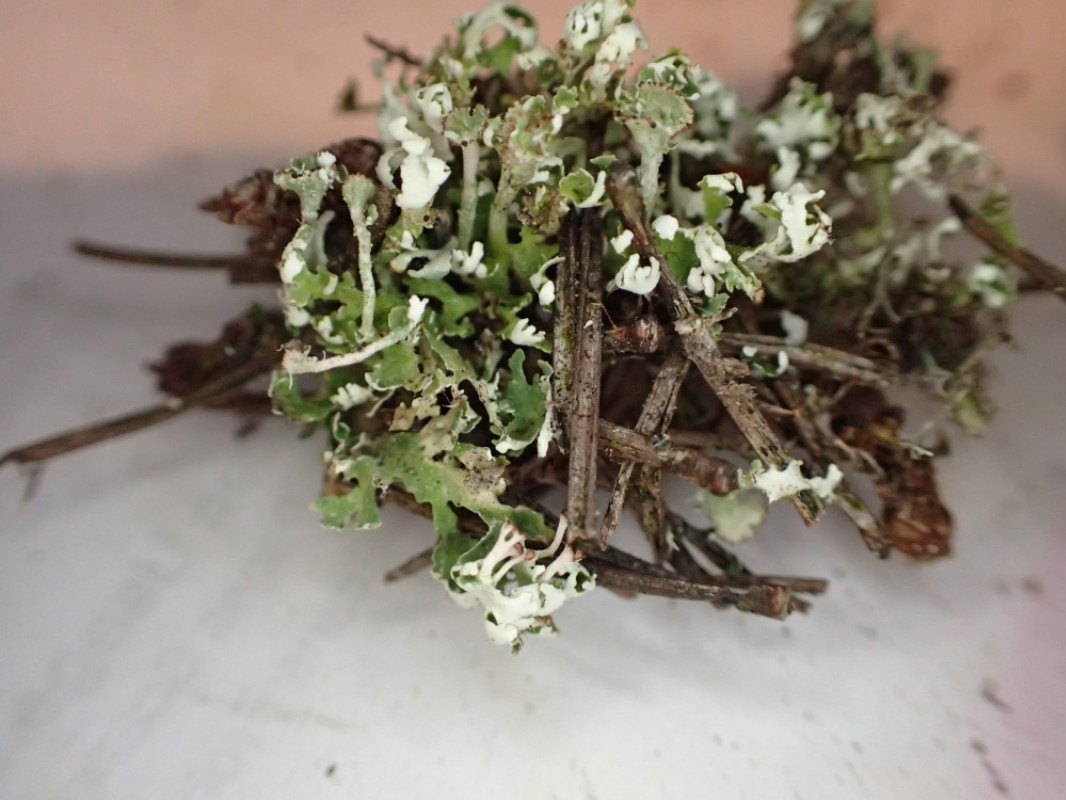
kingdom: Fungi
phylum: Ascomycota
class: Lecanoromycetes
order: Lecanorales
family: Cladoniaceae
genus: Cladonia
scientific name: Cladonia foliacea
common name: fliget bægerlav
